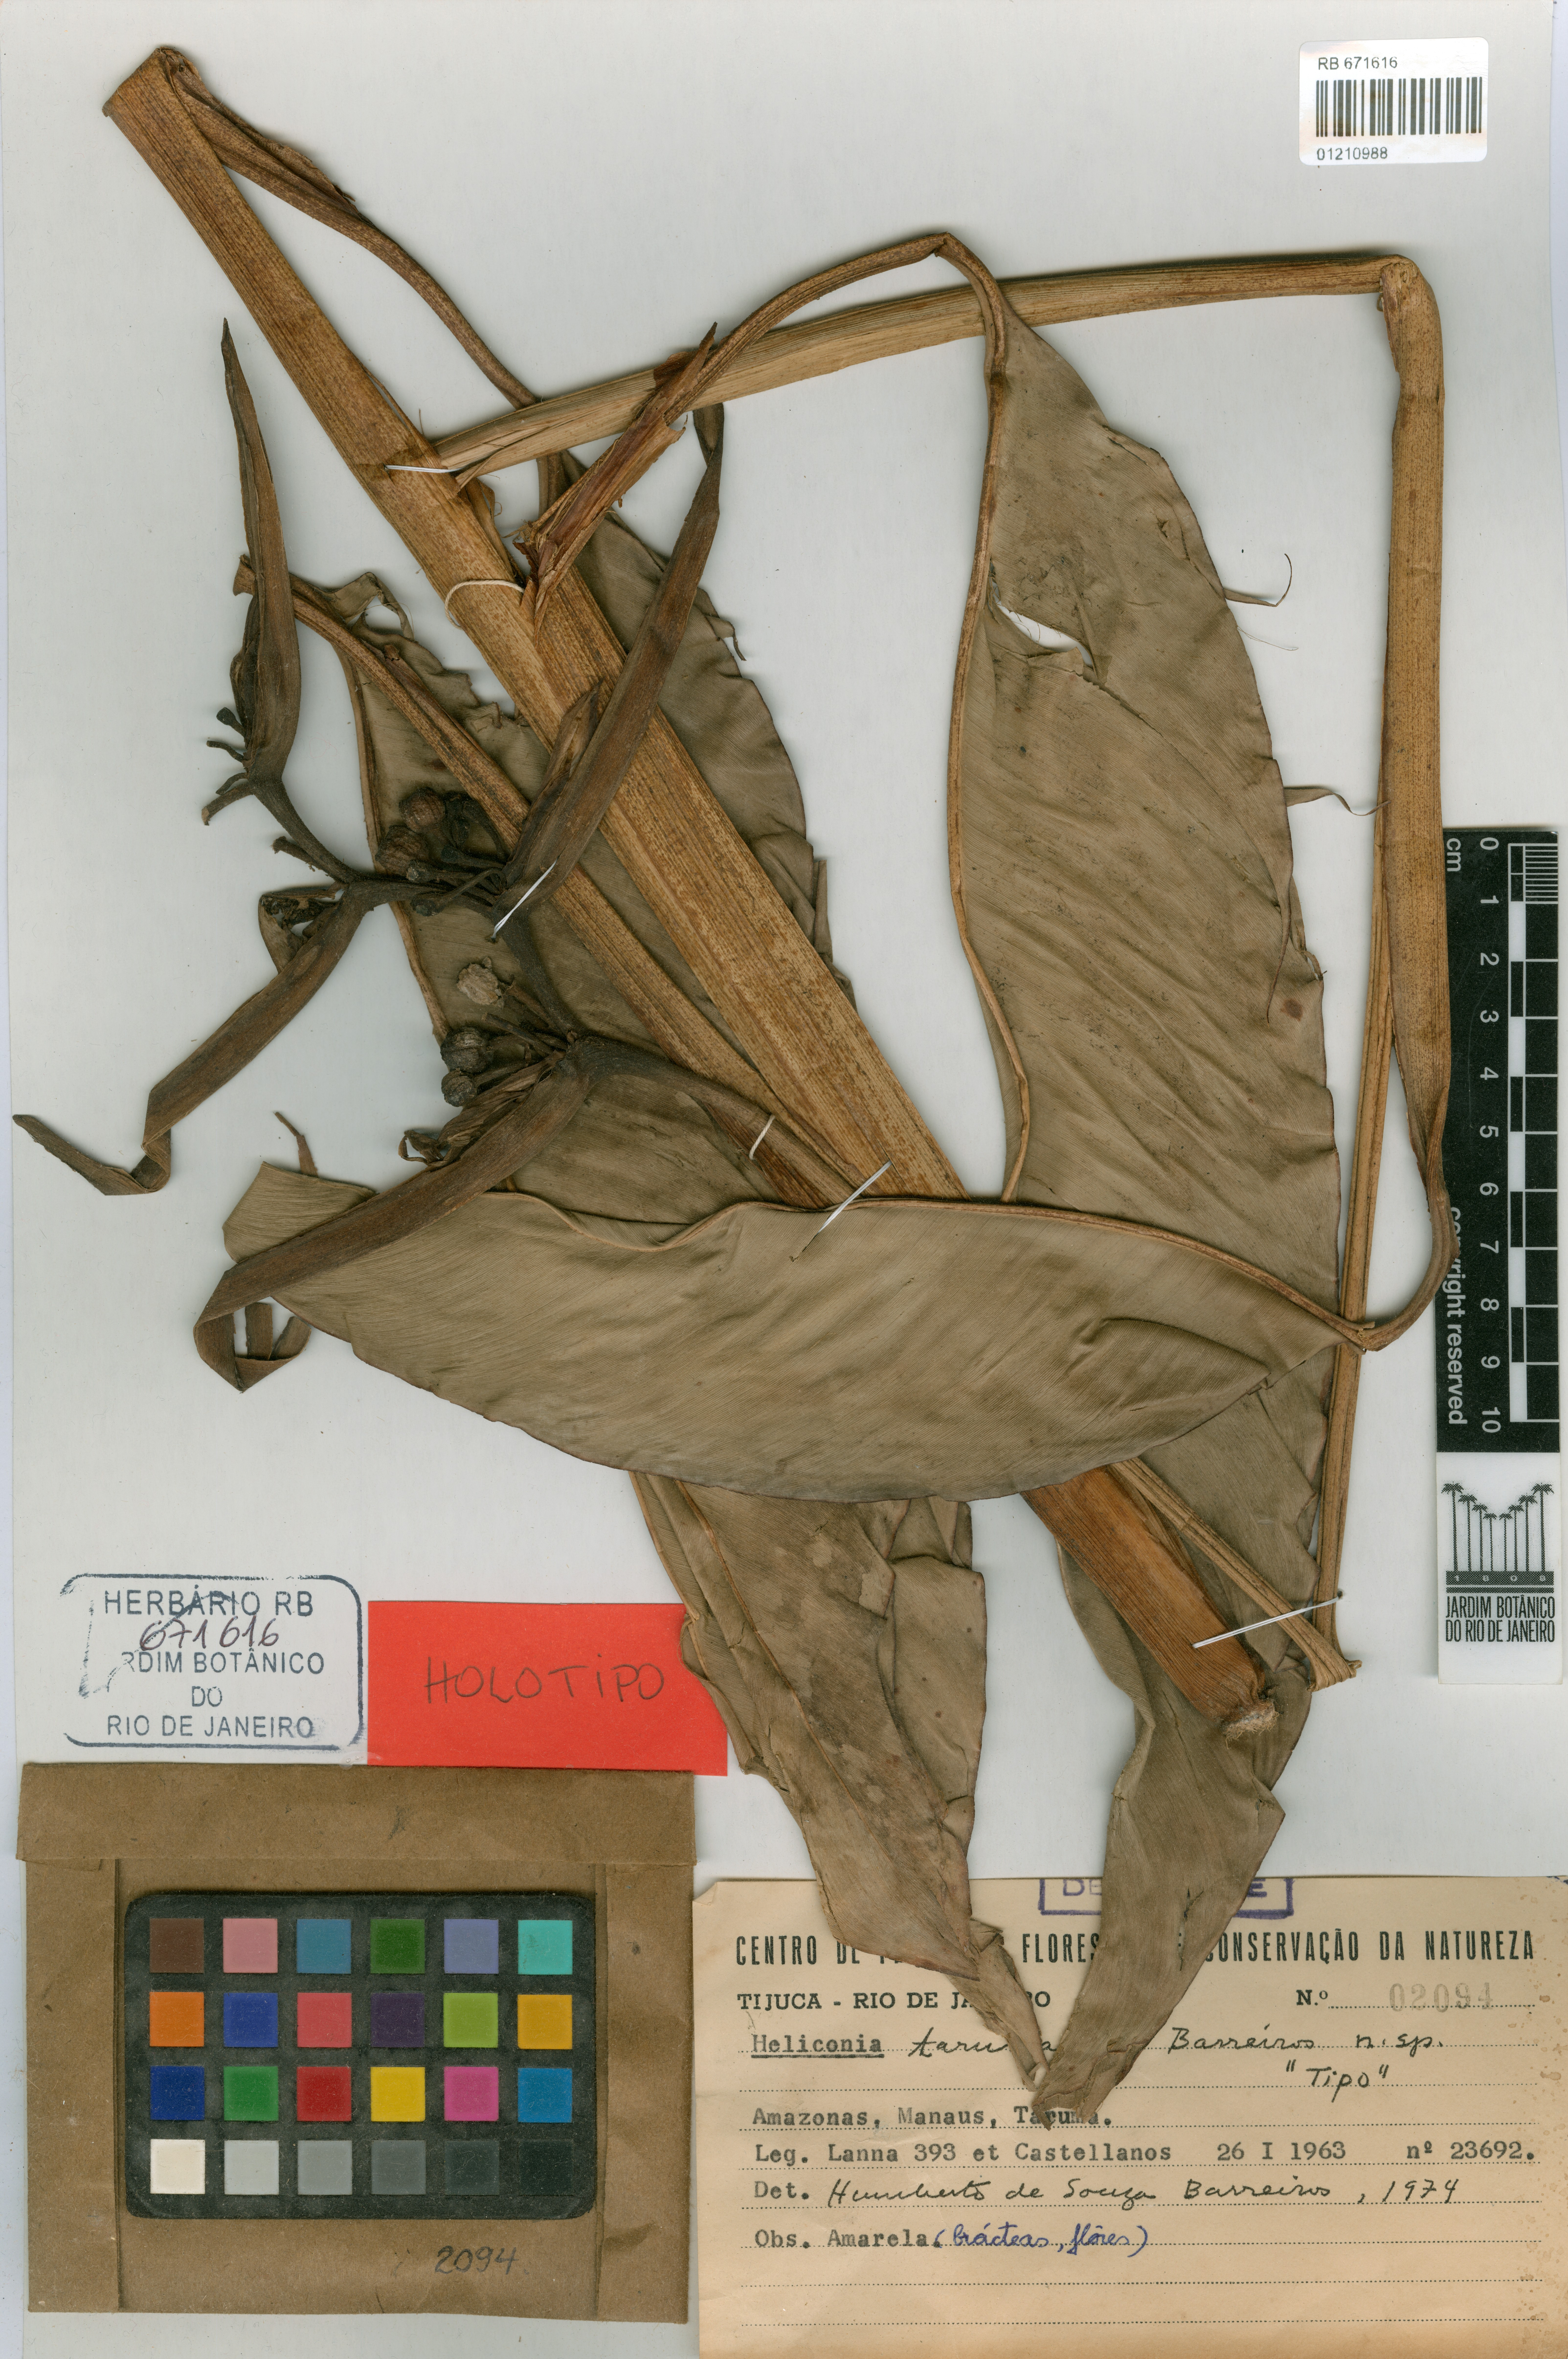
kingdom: Plantae
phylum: Tracheophyta
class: Liliopsida
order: Zingiberales
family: Heliconiaceae
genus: Heliconia
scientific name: Heliconia acuminata
